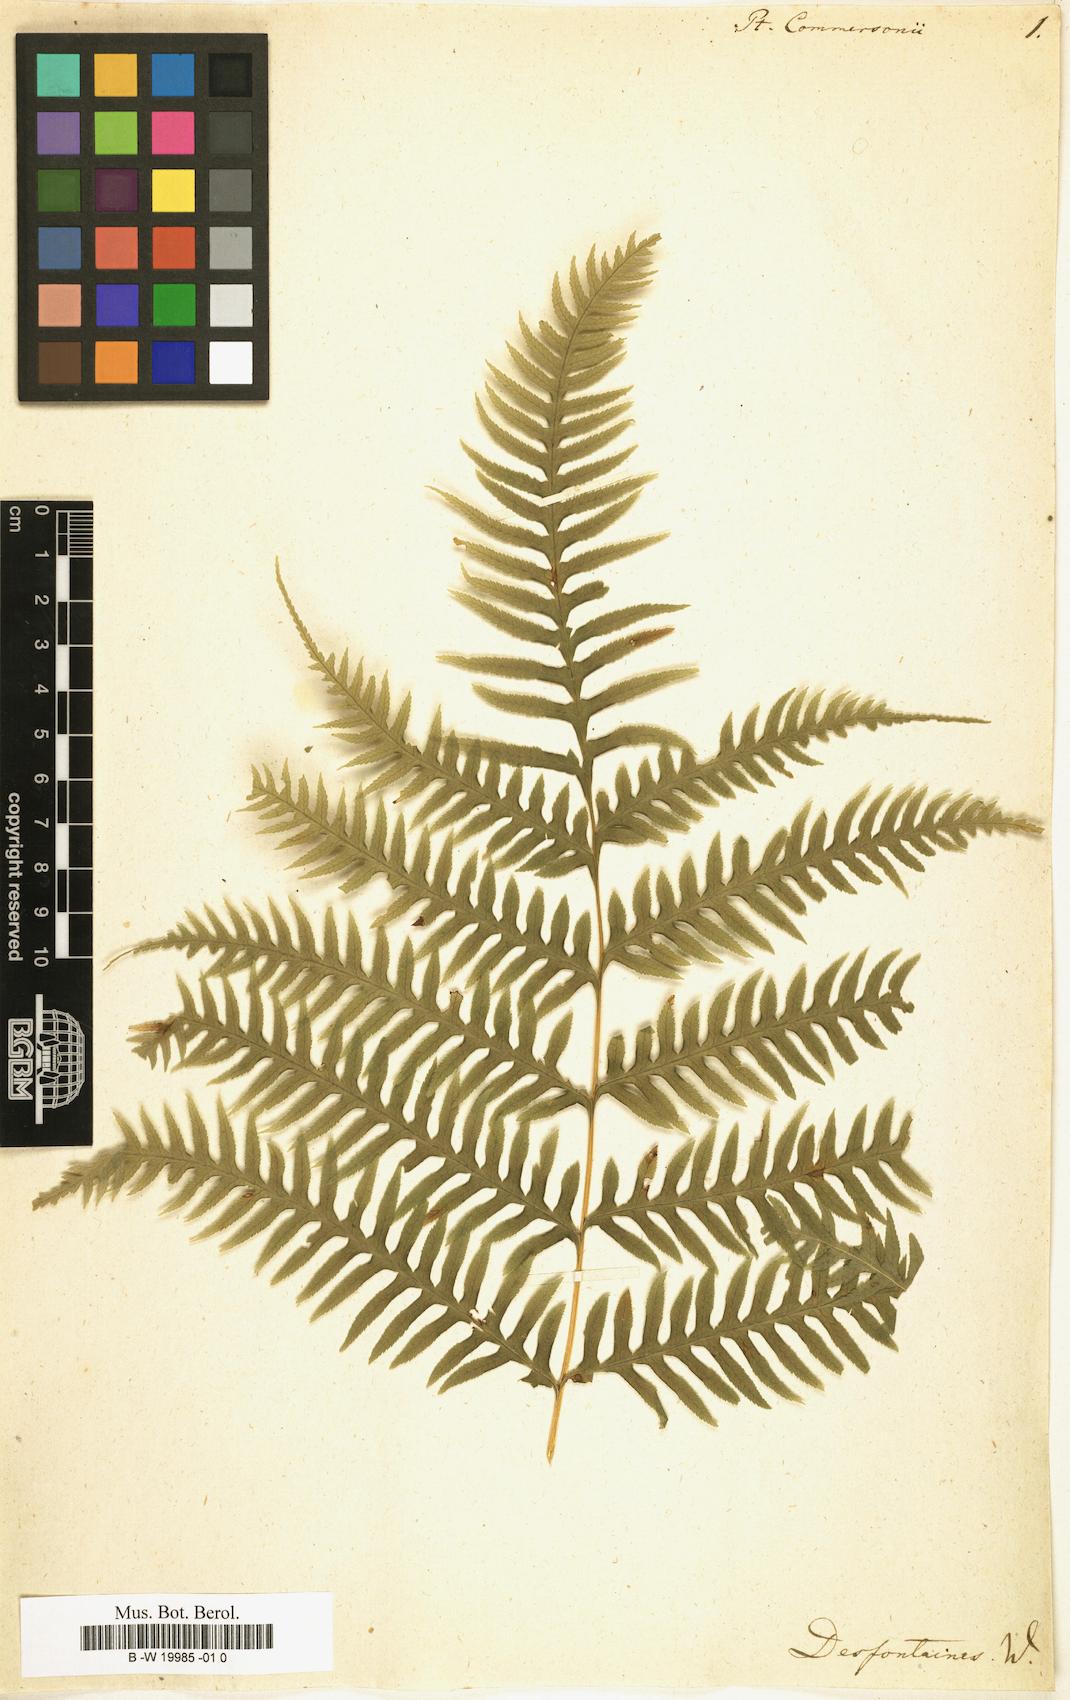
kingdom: Plantae
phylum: Tracheophyta
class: Polypodiopsida
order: Polypodiales
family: Polypodiaceae
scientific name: Polypodiaceae
